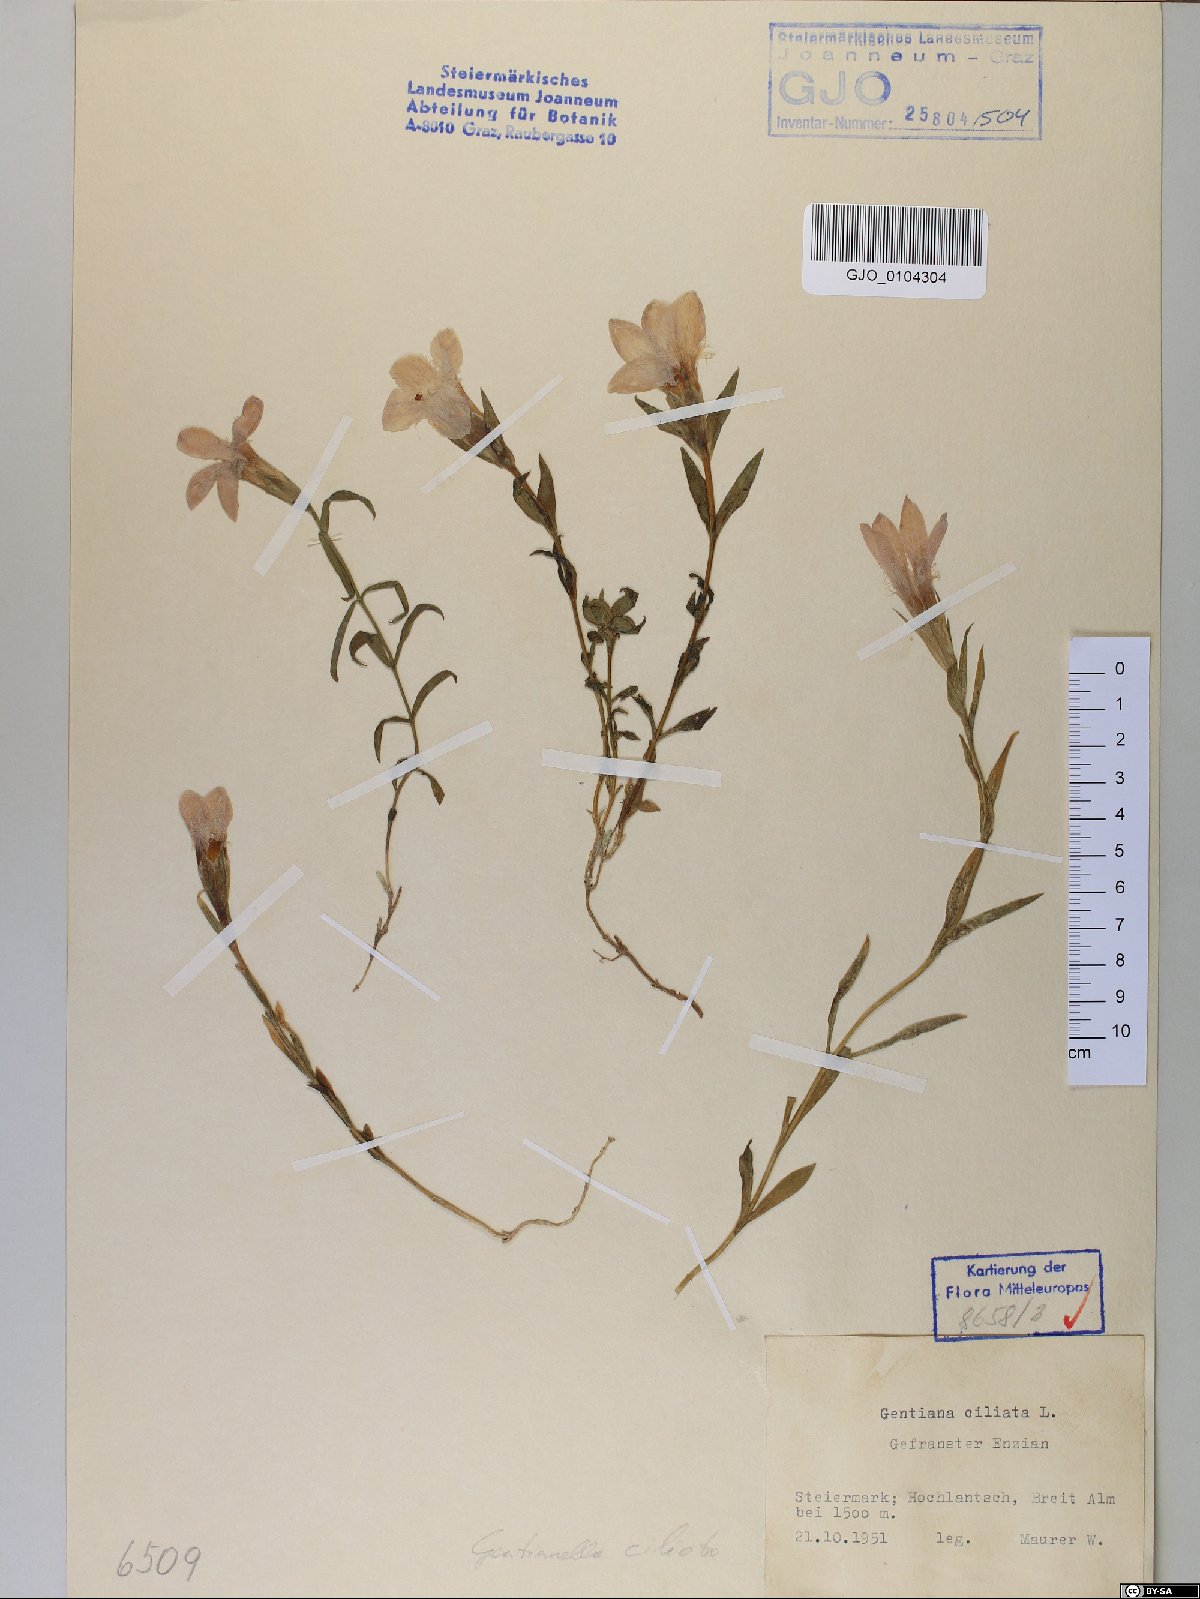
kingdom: Plantae
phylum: Tracheophyta
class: Magnoliopsida
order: Gentianales
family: Gentianaceae
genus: Gentianopsis
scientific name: Gentianopsis ciliata
